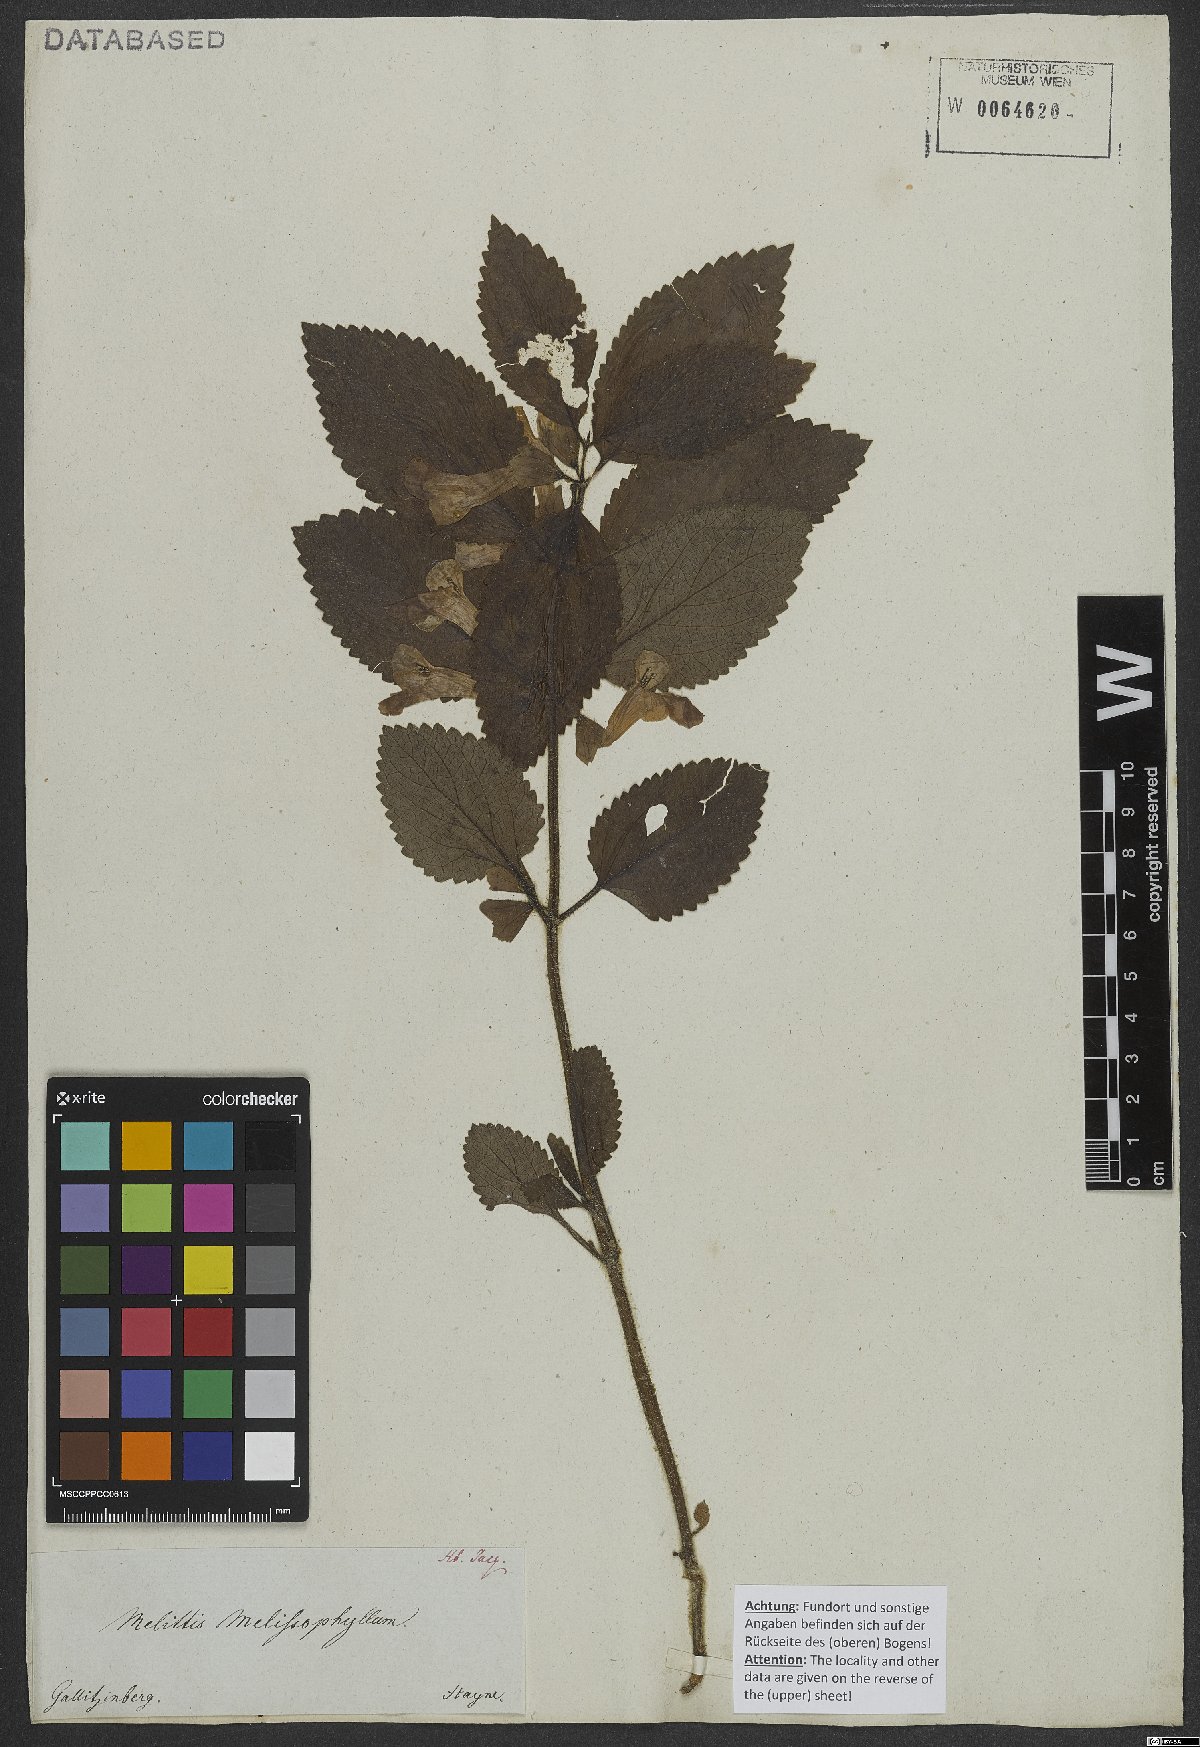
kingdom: Plantae
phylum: Tracheophyta
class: Magnoliopsida
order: Lamiales
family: Lamiaceae
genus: Melittis
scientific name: Melittis melissophyllum
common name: Bastard balm
